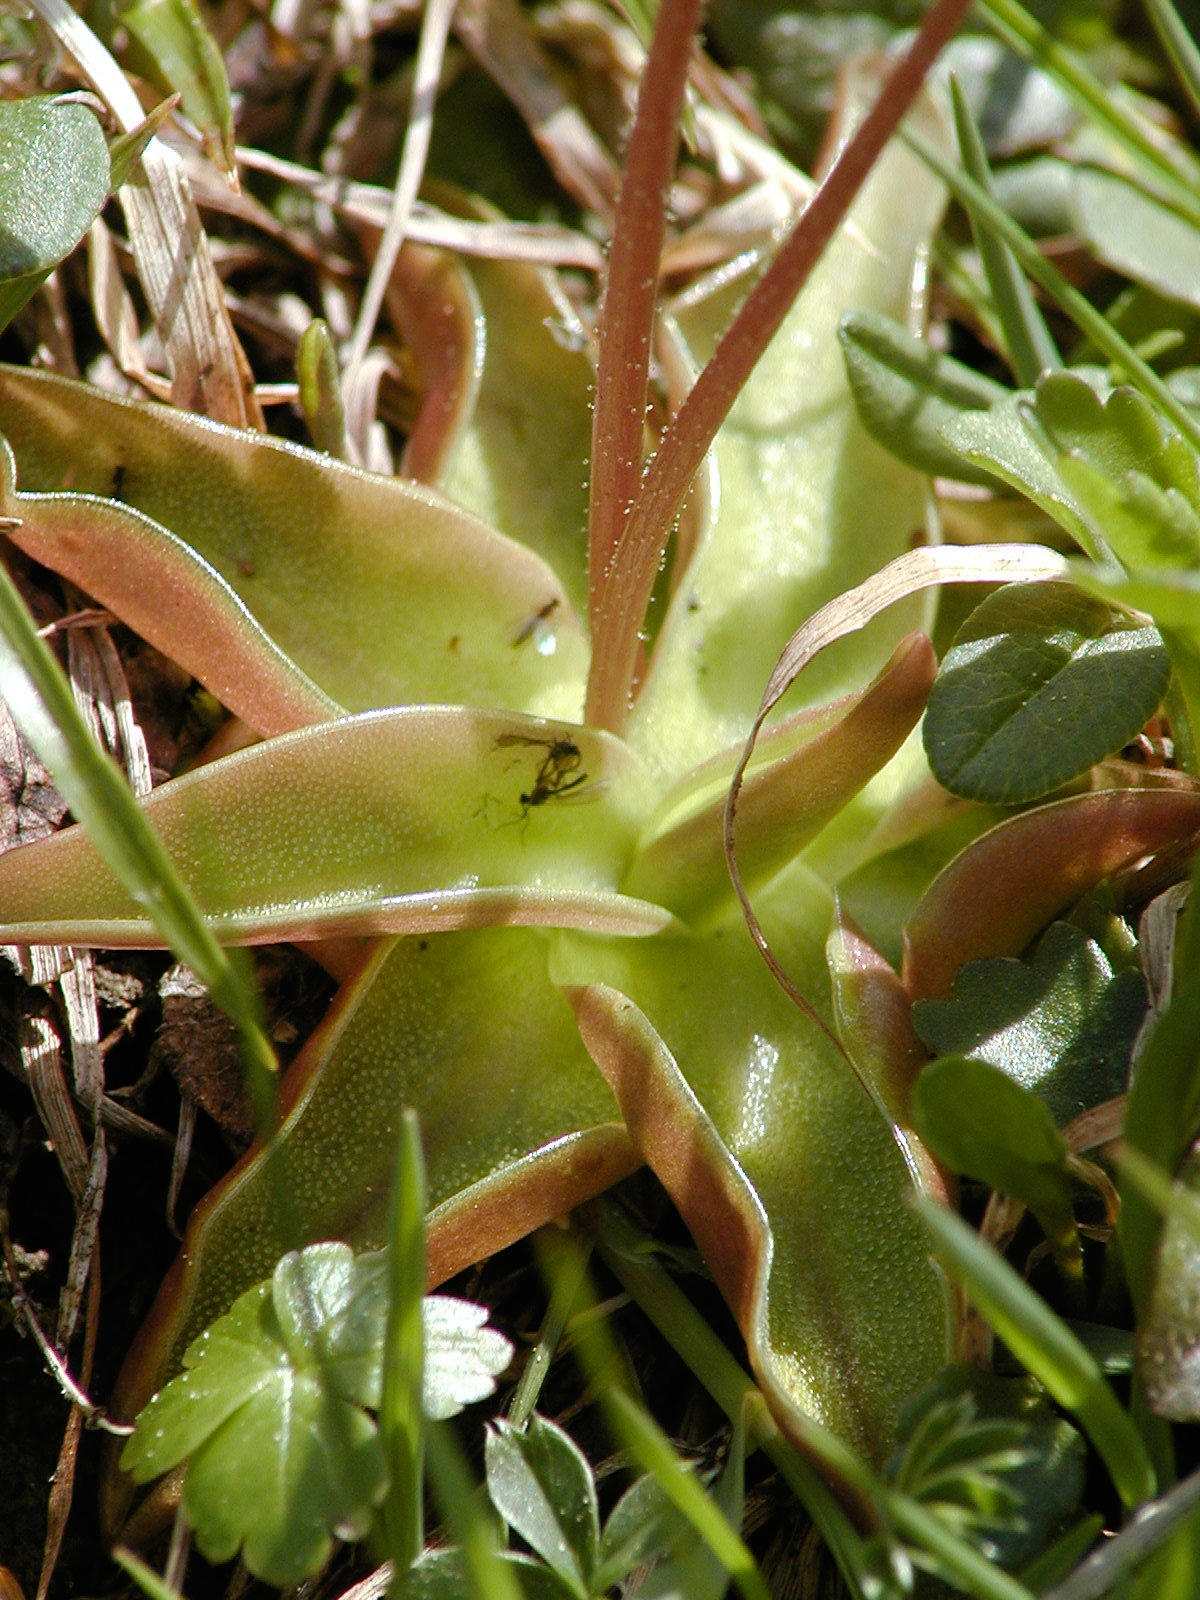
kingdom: Plantae
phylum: Tracheophyta
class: Magnoliopsida
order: Lamiales
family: Lentibulariaceae
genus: Pinguicula
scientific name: Pinguicula alpina
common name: Alpine butterwort
